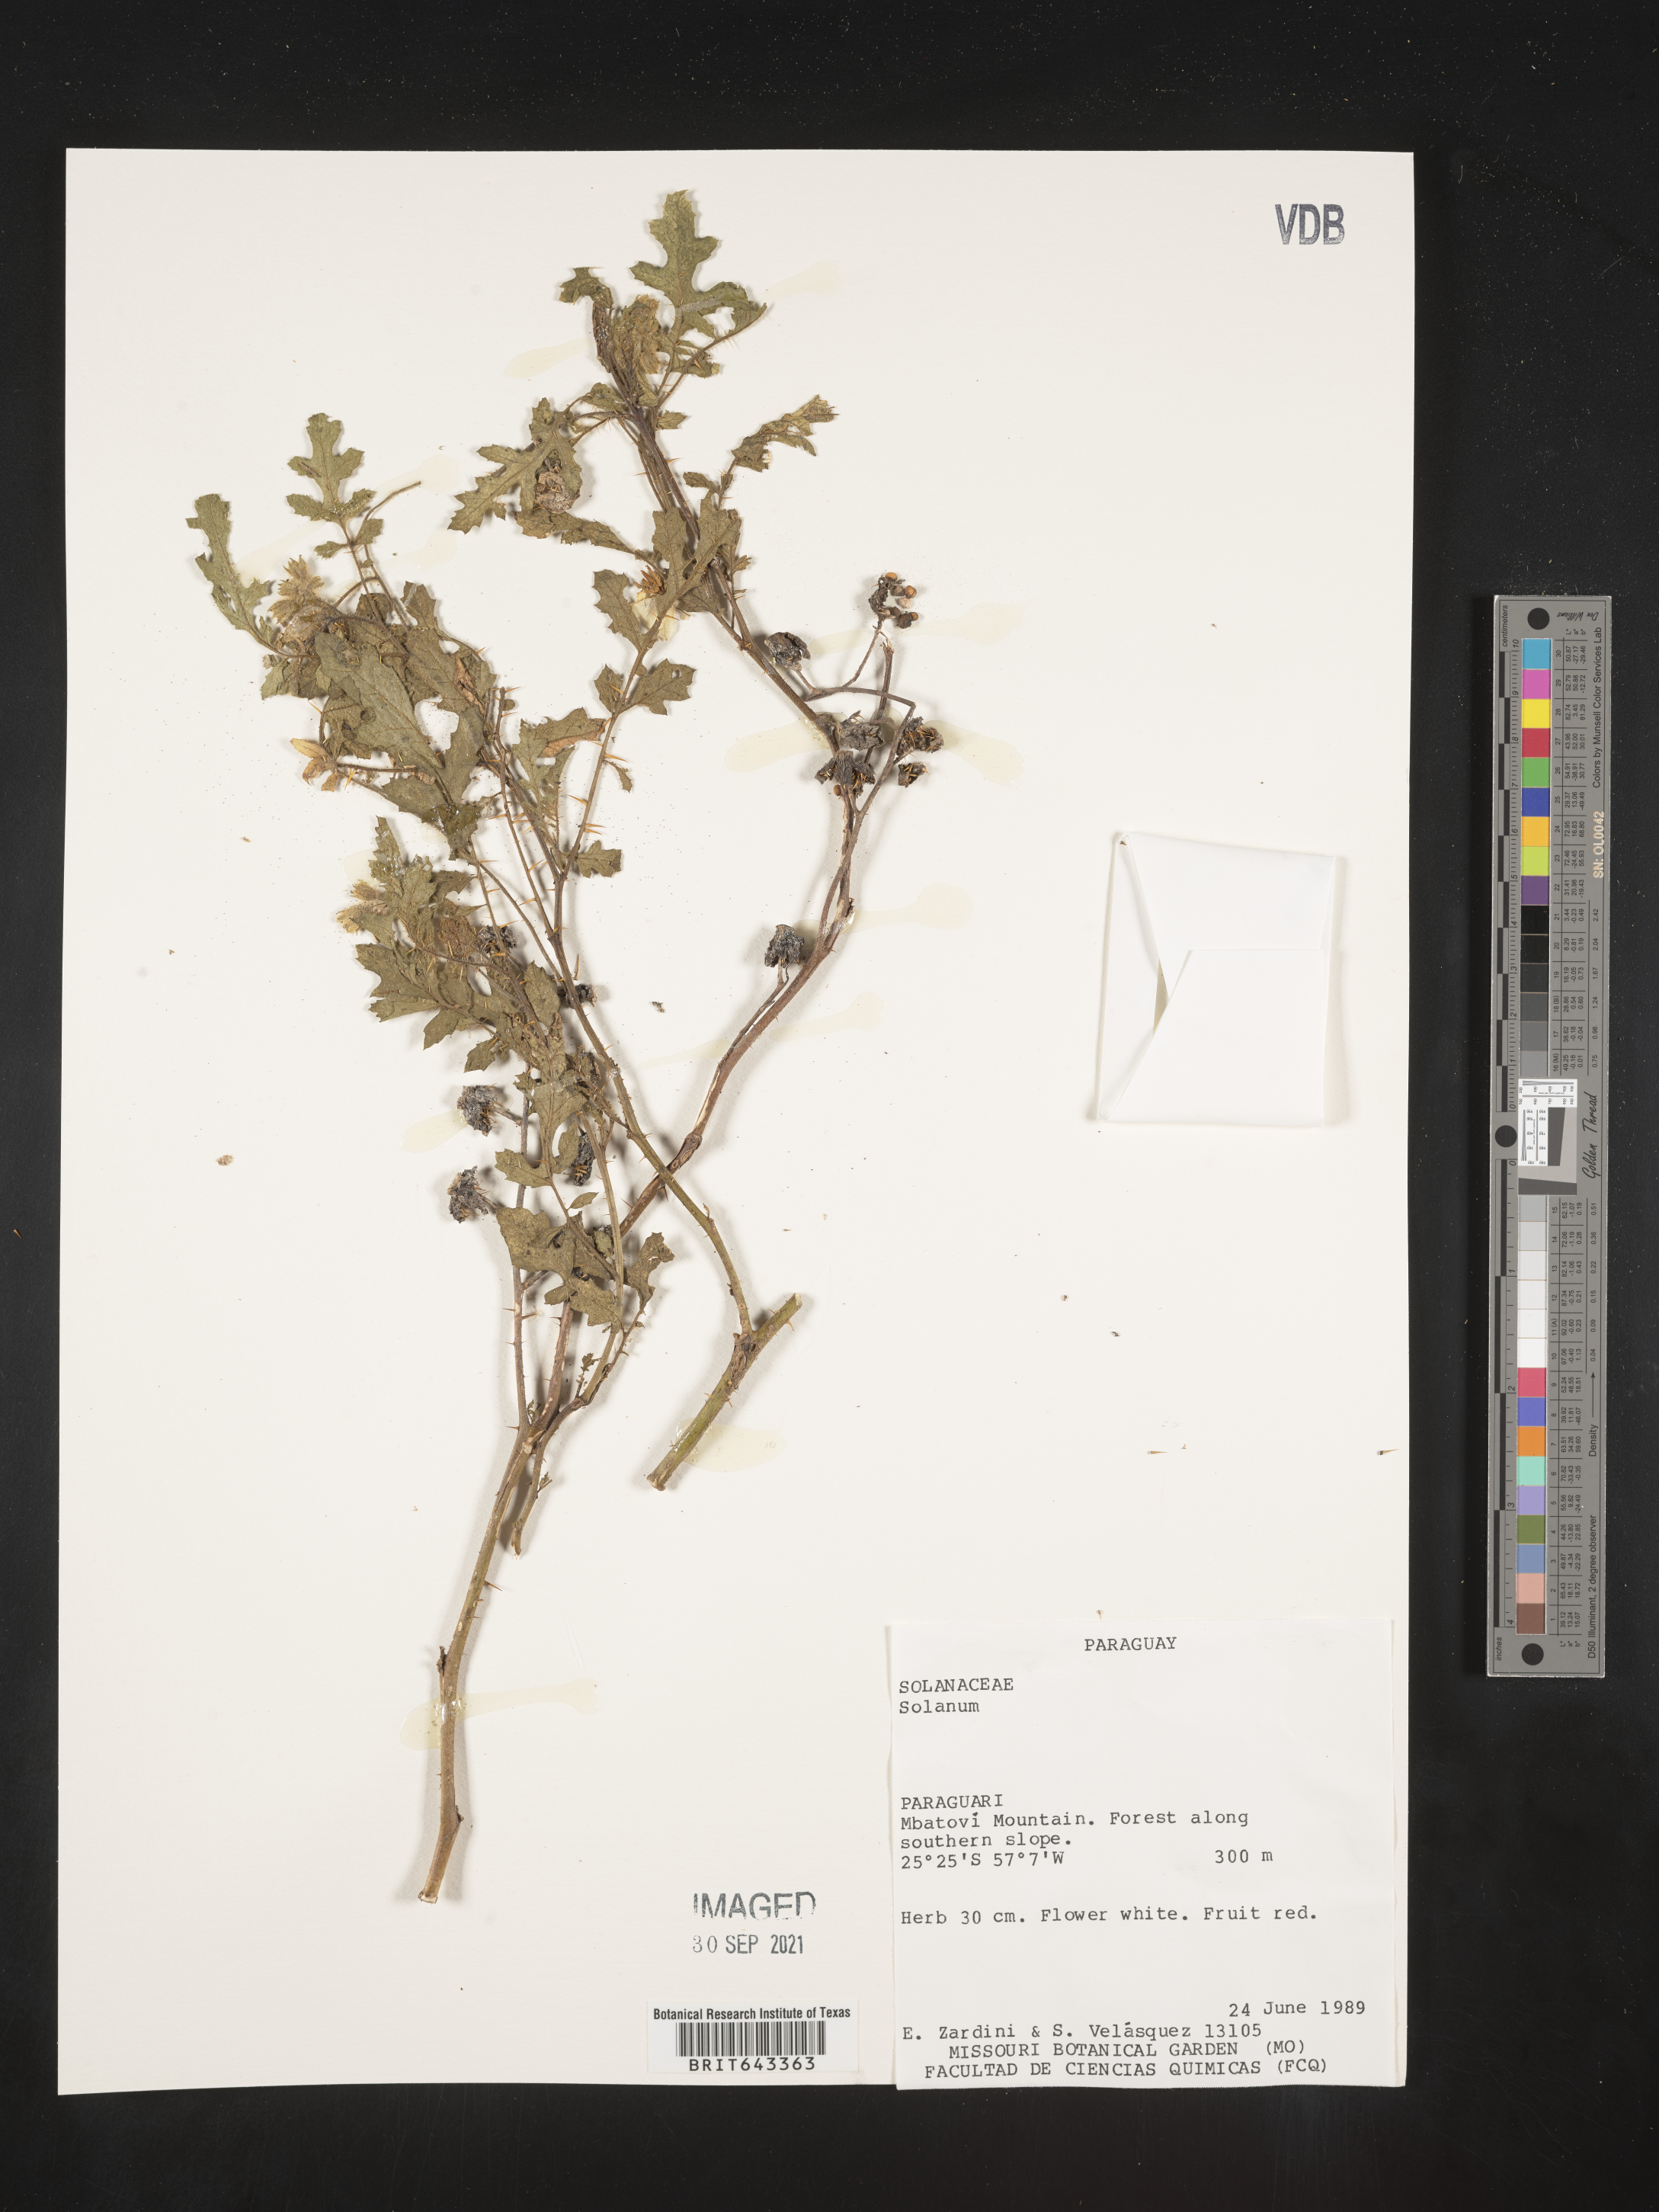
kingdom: Plantae
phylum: Tracheophyta
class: Magnoliopsida
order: Solanales
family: Solanaceae
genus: Solanum
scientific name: Solanum
